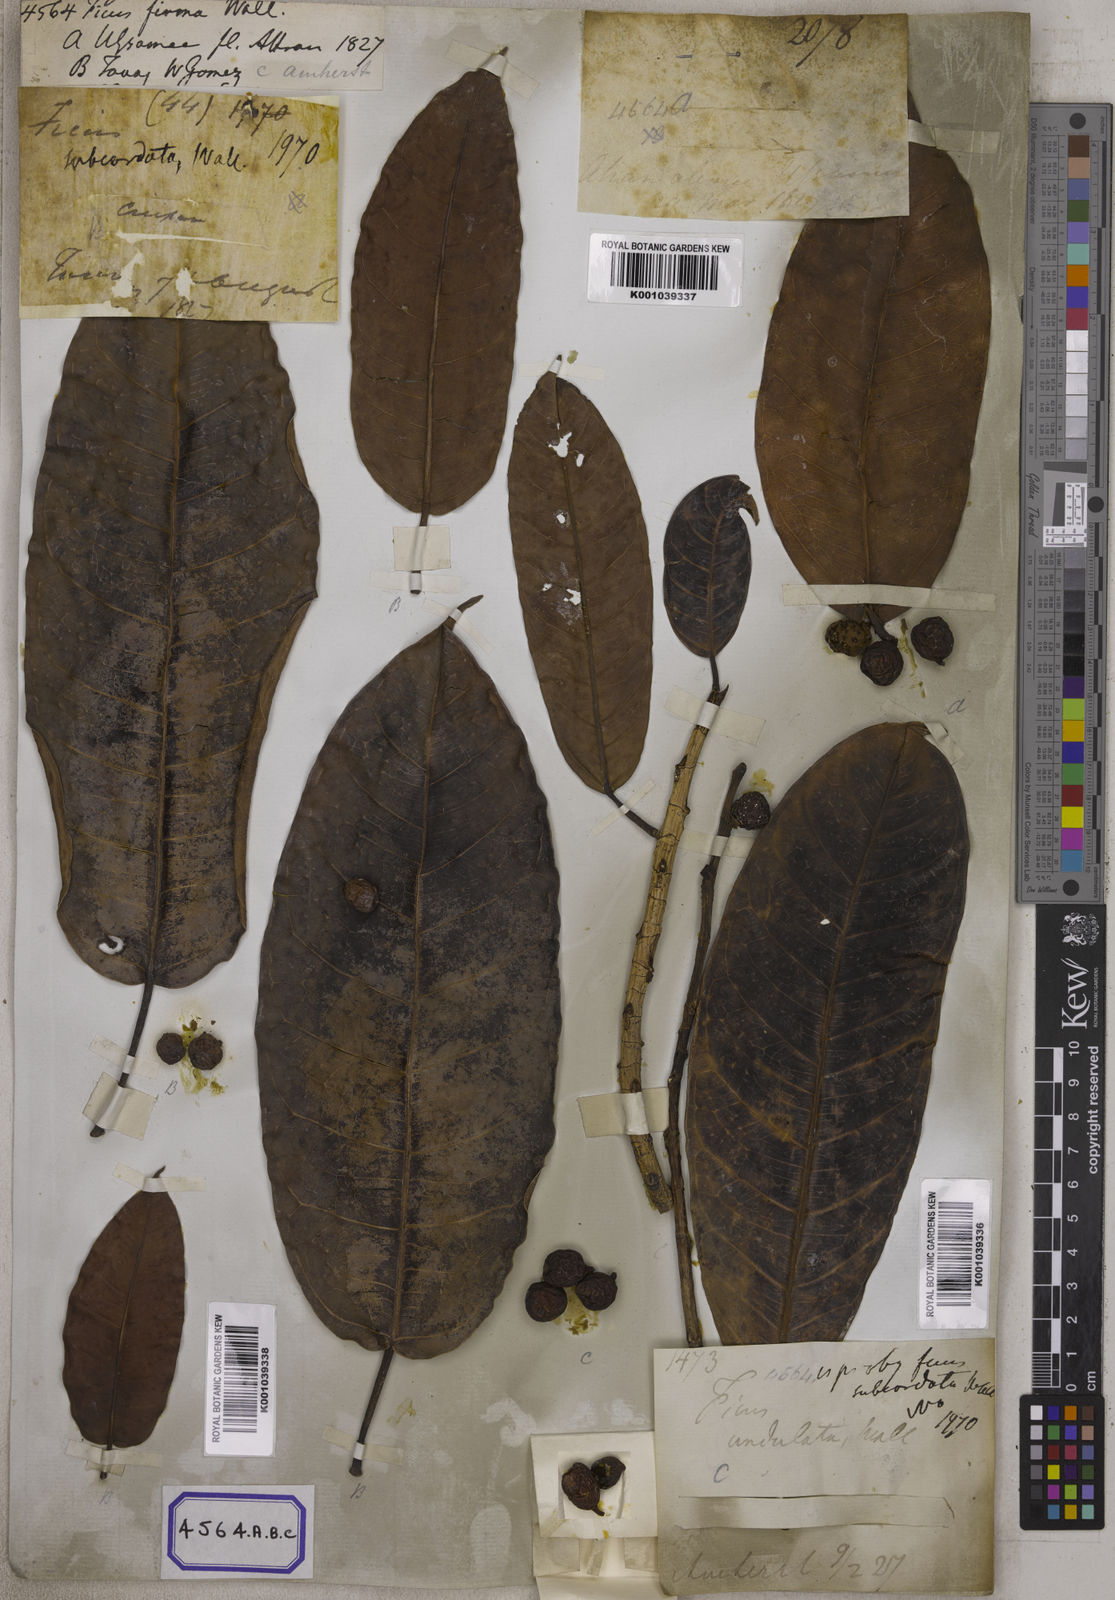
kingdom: Plantae
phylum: Tracheophyta
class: Magnoliopsida
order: Rosales
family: Moraceae
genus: Ficus
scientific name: Ficus
